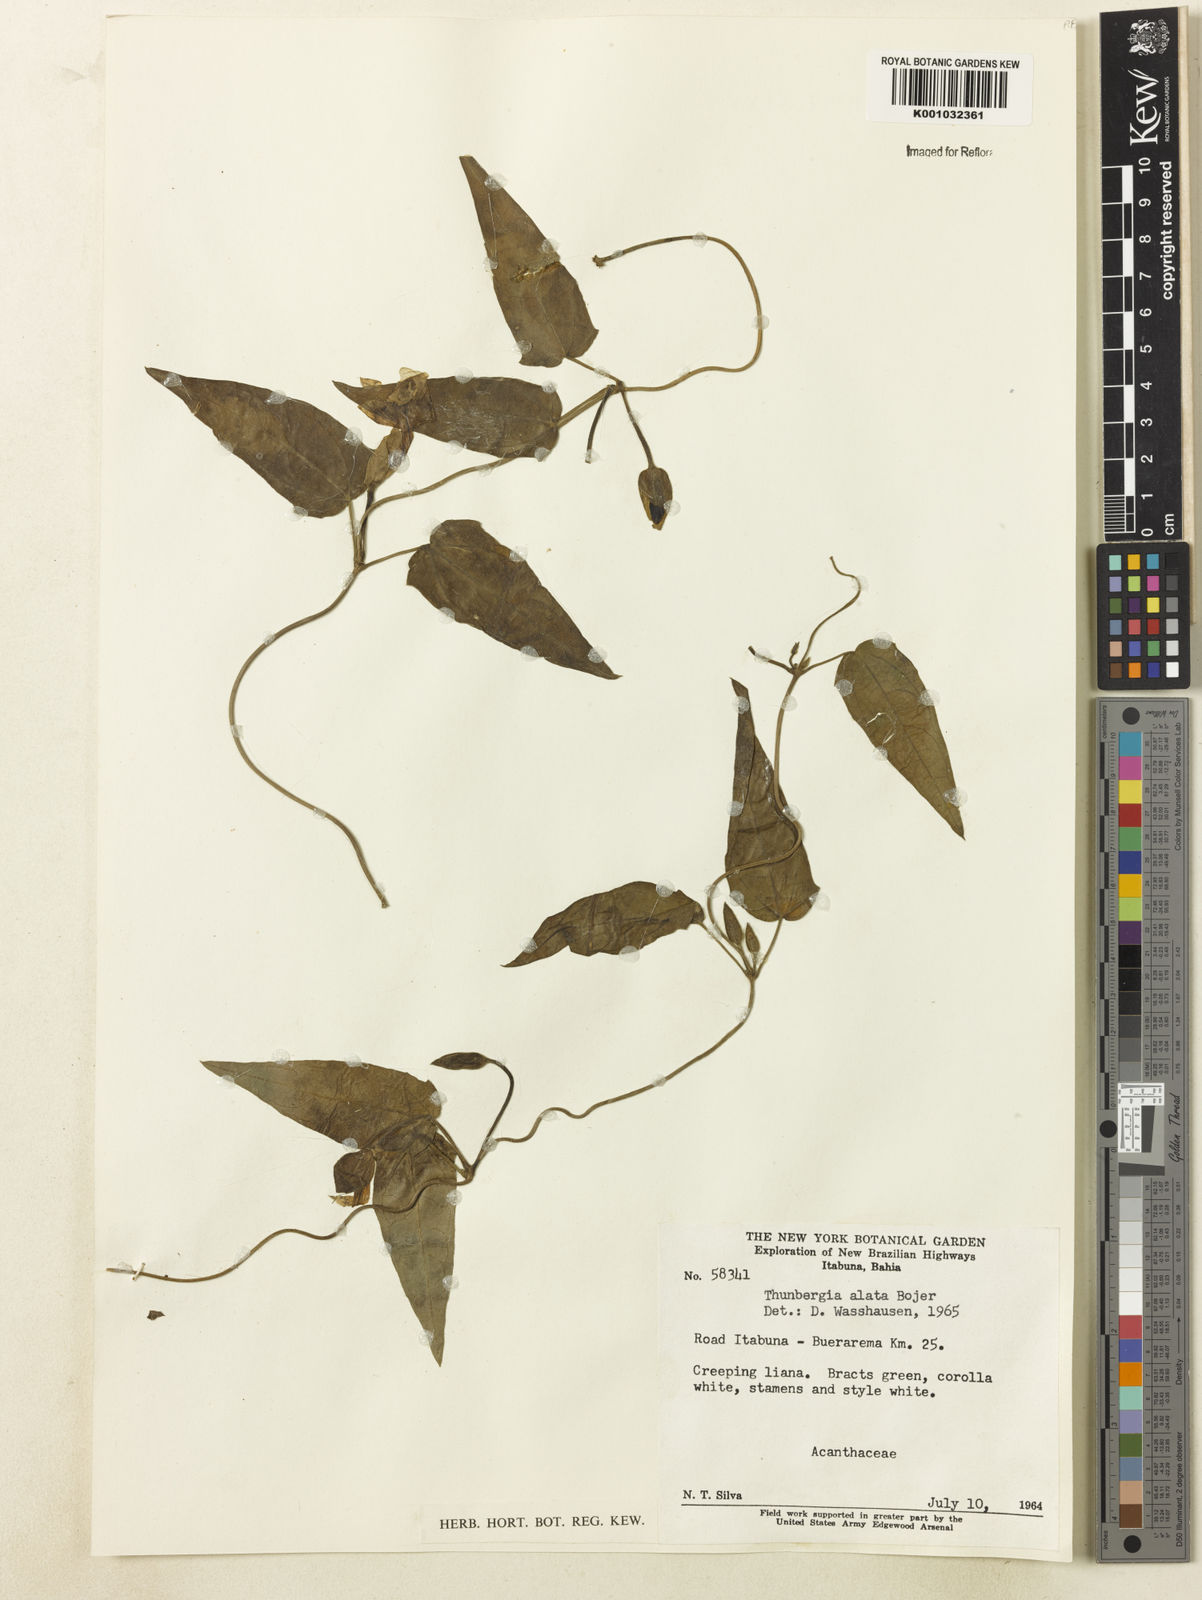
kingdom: Plantae
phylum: Tracheophyta
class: Magnoliopsida
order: Lamiales
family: Acanthaceae
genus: Thunbergia
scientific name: Thunbergia alata
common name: Blackeyed susan vine
